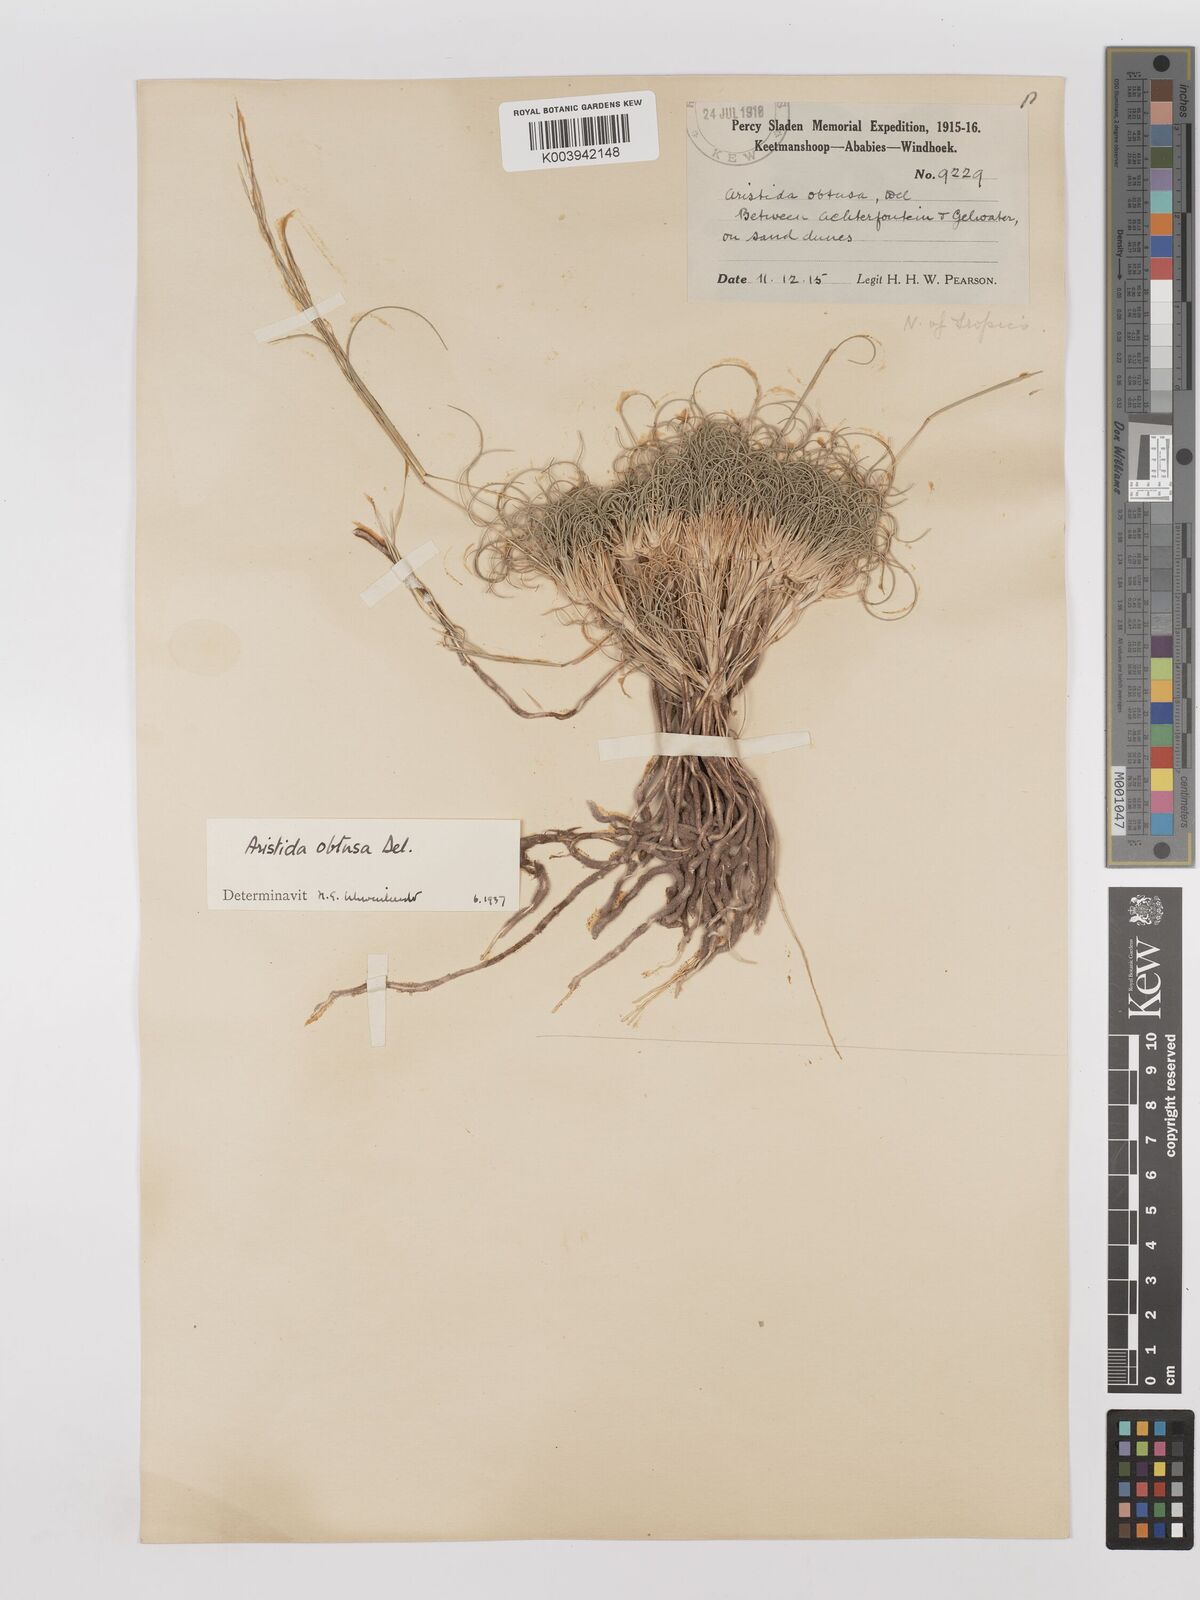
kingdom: Plantae
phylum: Tracheophyta
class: Liliopsida
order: Poales
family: Poaceae
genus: Stipagrostis
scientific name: Stipagrostis obtusa
